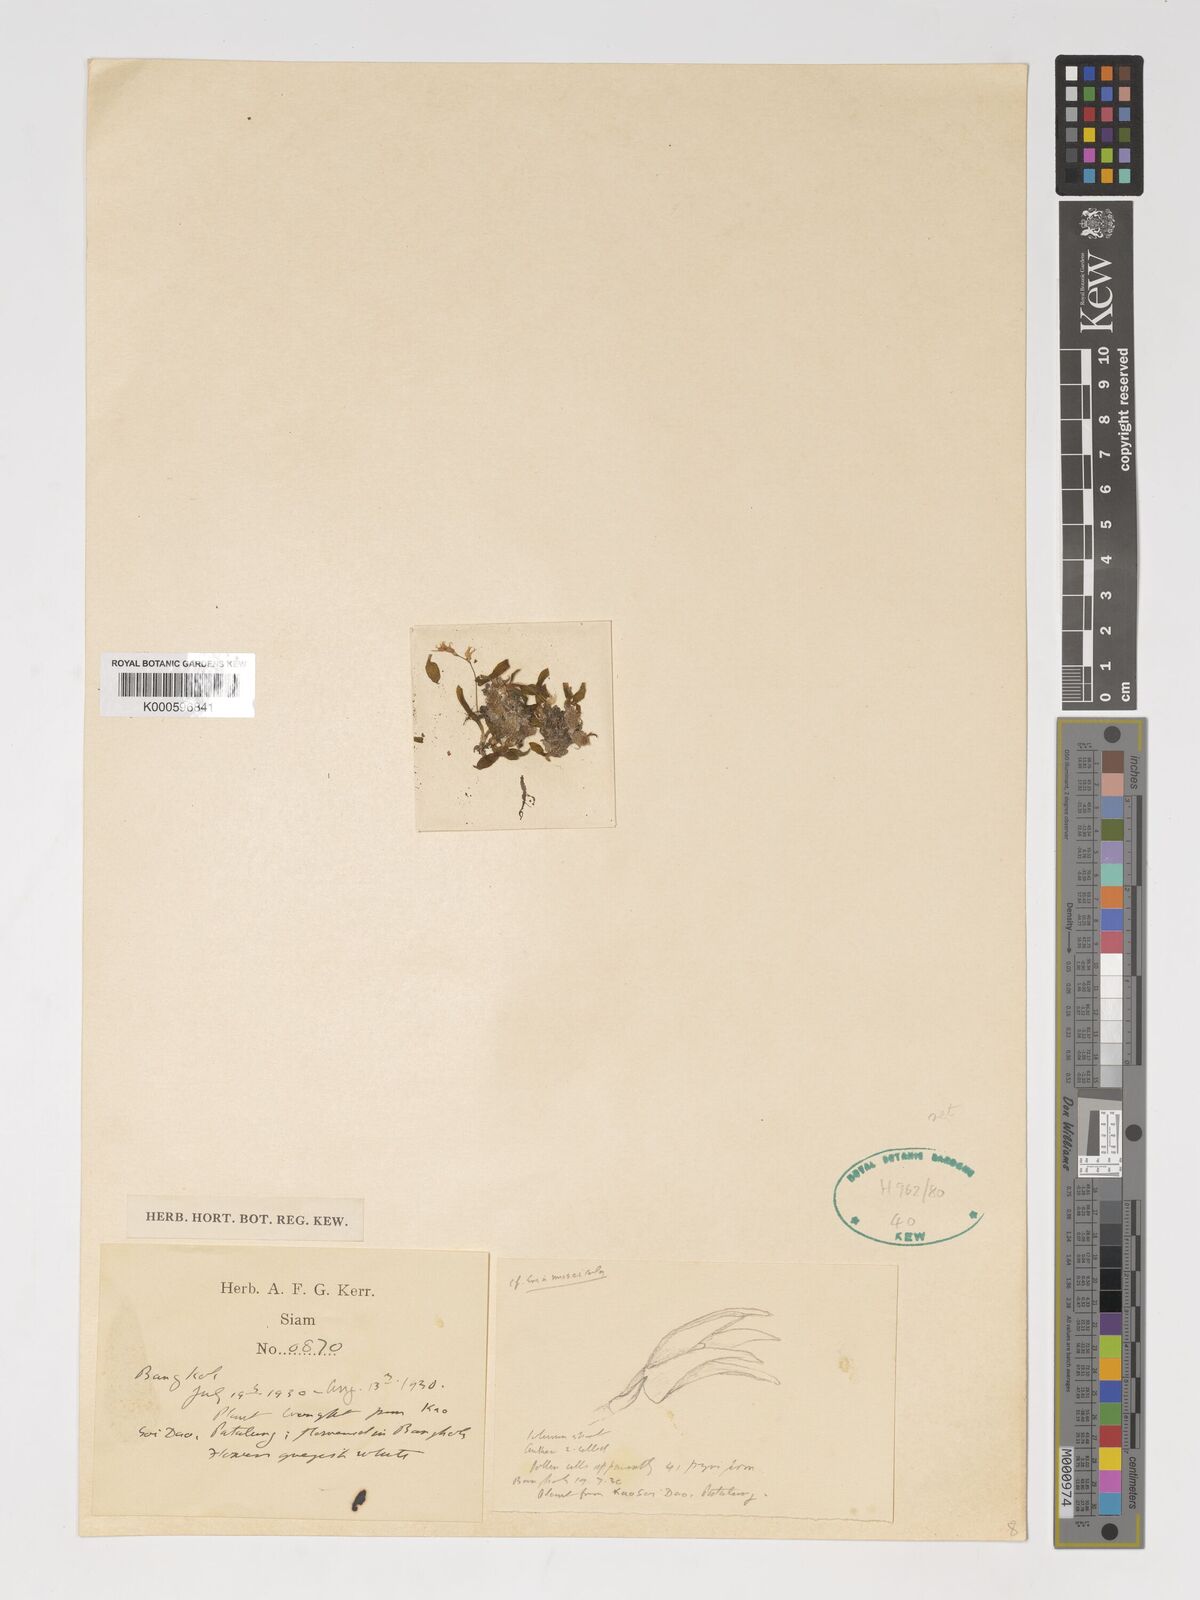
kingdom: Plantae
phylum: Tracheophyta
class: Liliopsida
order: Asparagales
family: Orchidaceae
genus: Porpax
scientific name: Porpax parviflorum
